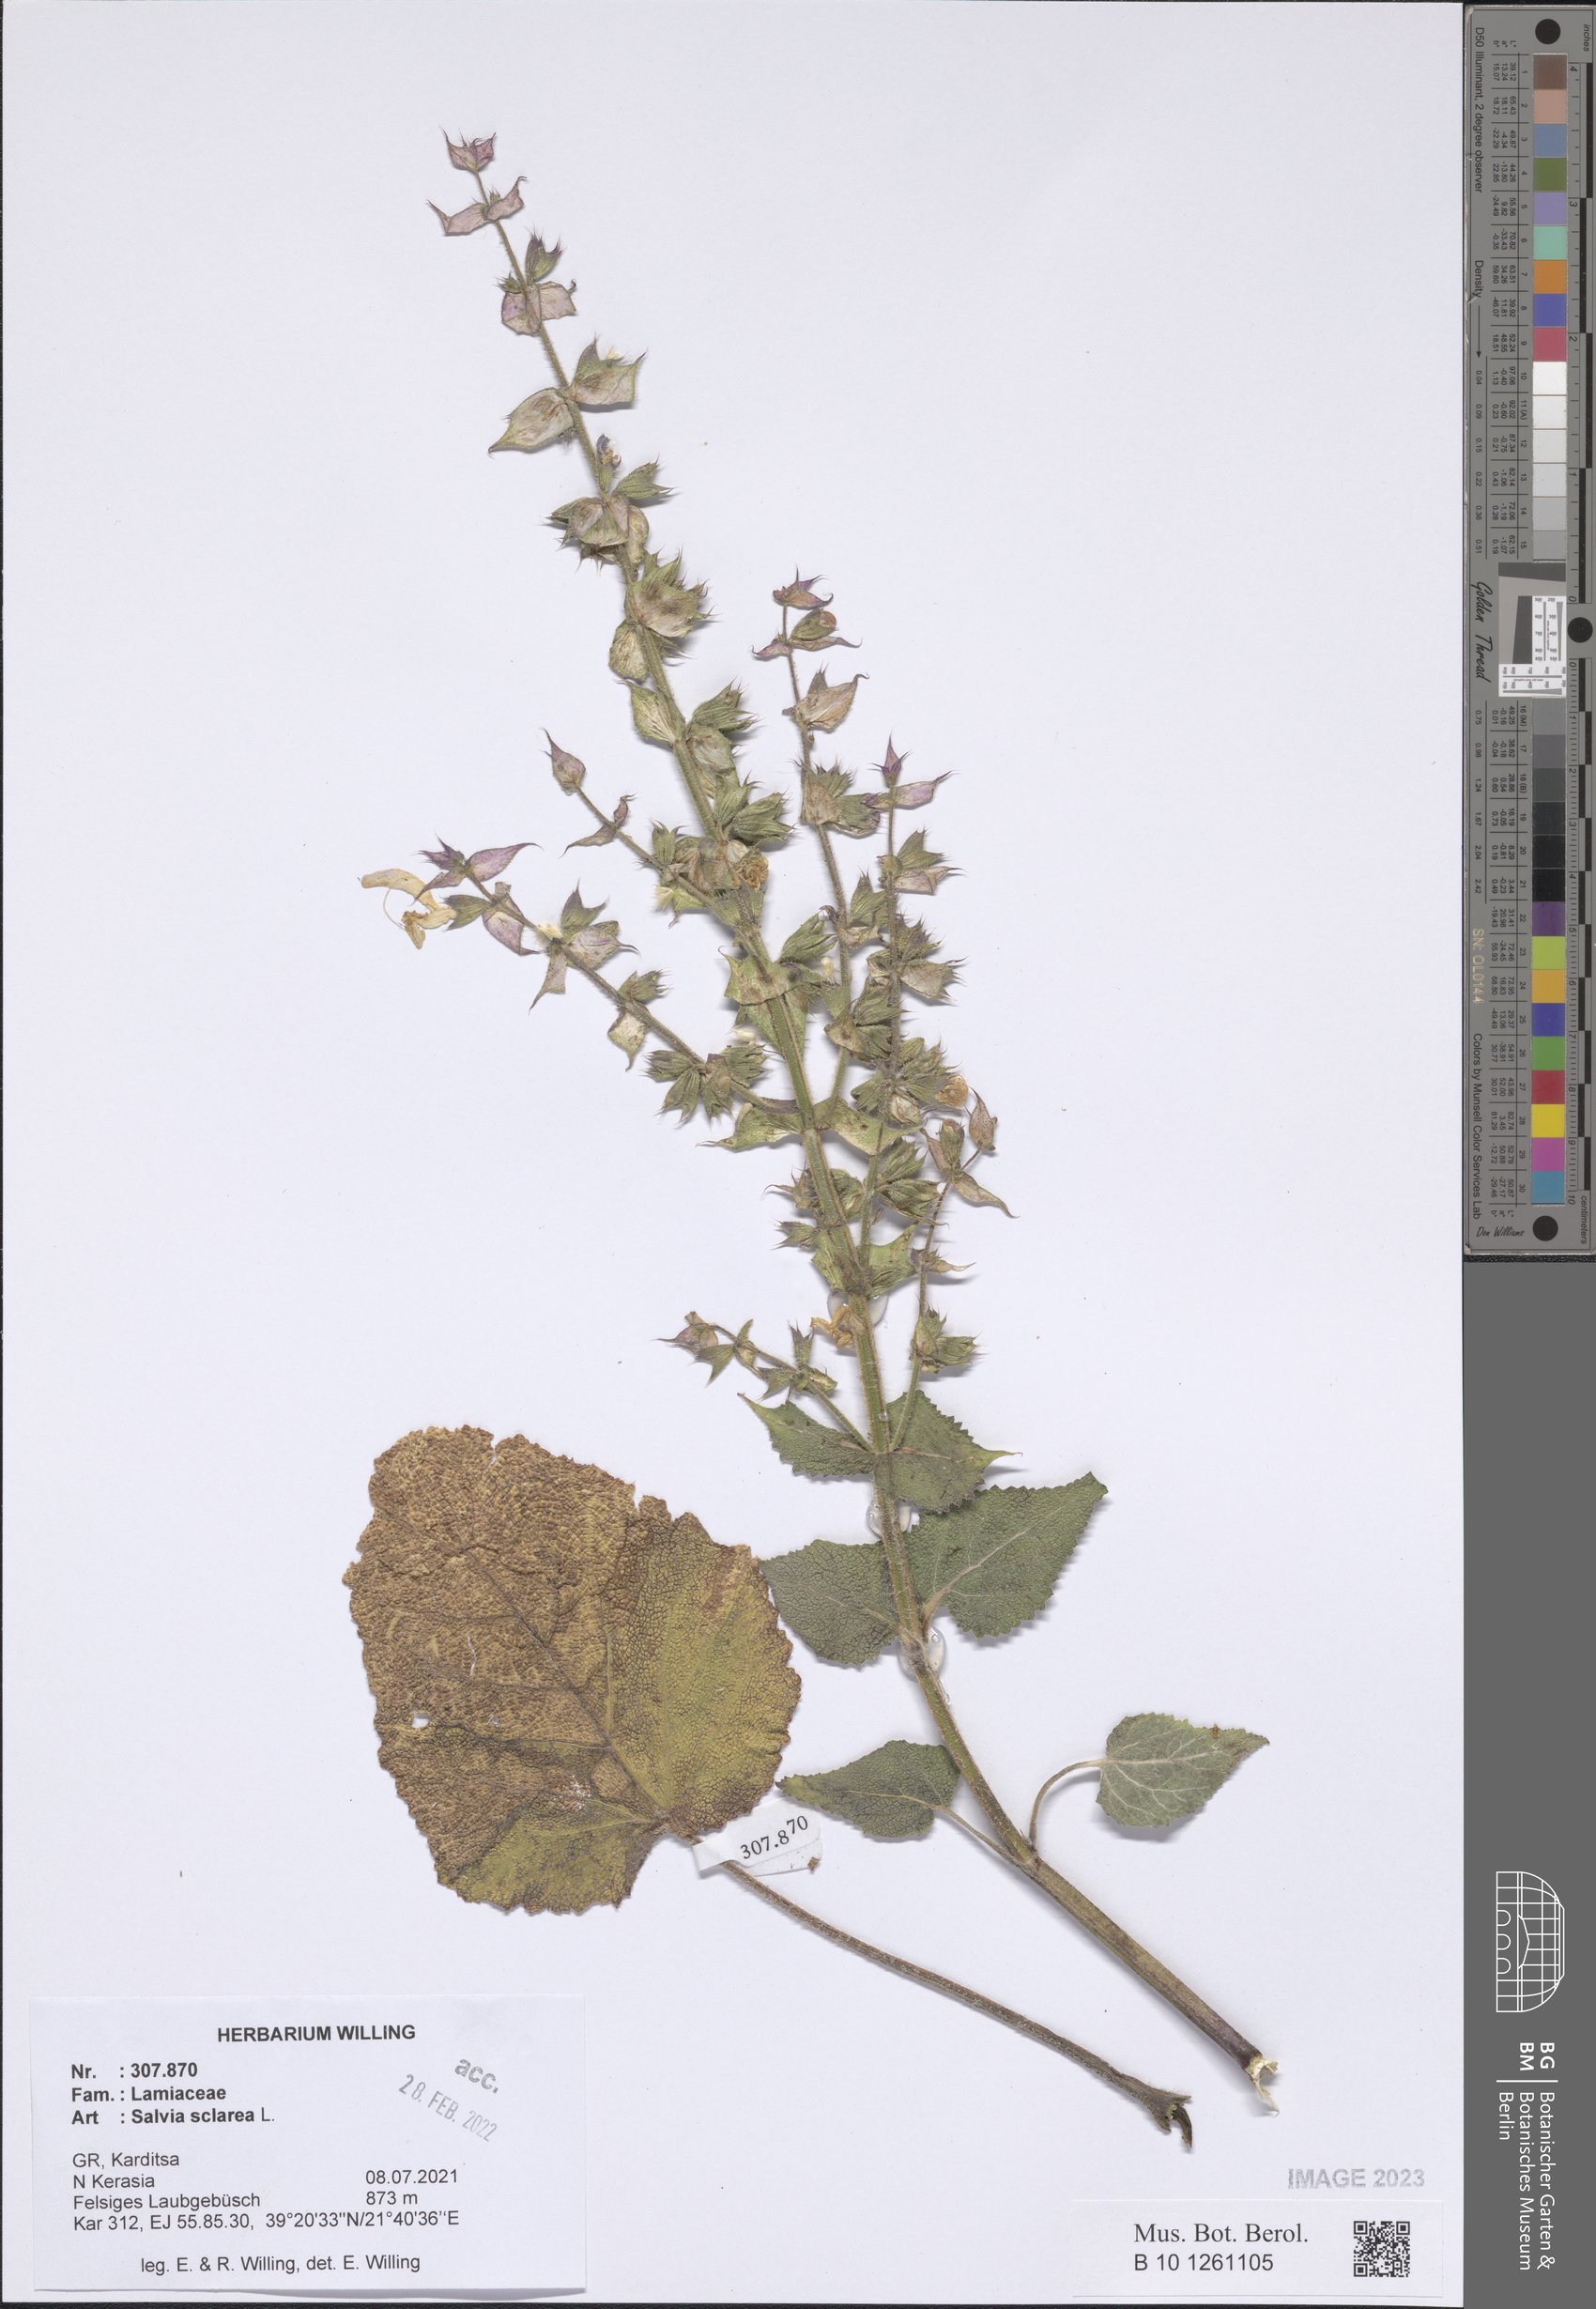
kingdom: Plantae
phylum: Tracheophyta
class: Magnoliopsida
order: Lamiales
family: Lamiaceae
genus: Salvia
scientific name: Salvia sclarea
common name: Clary
